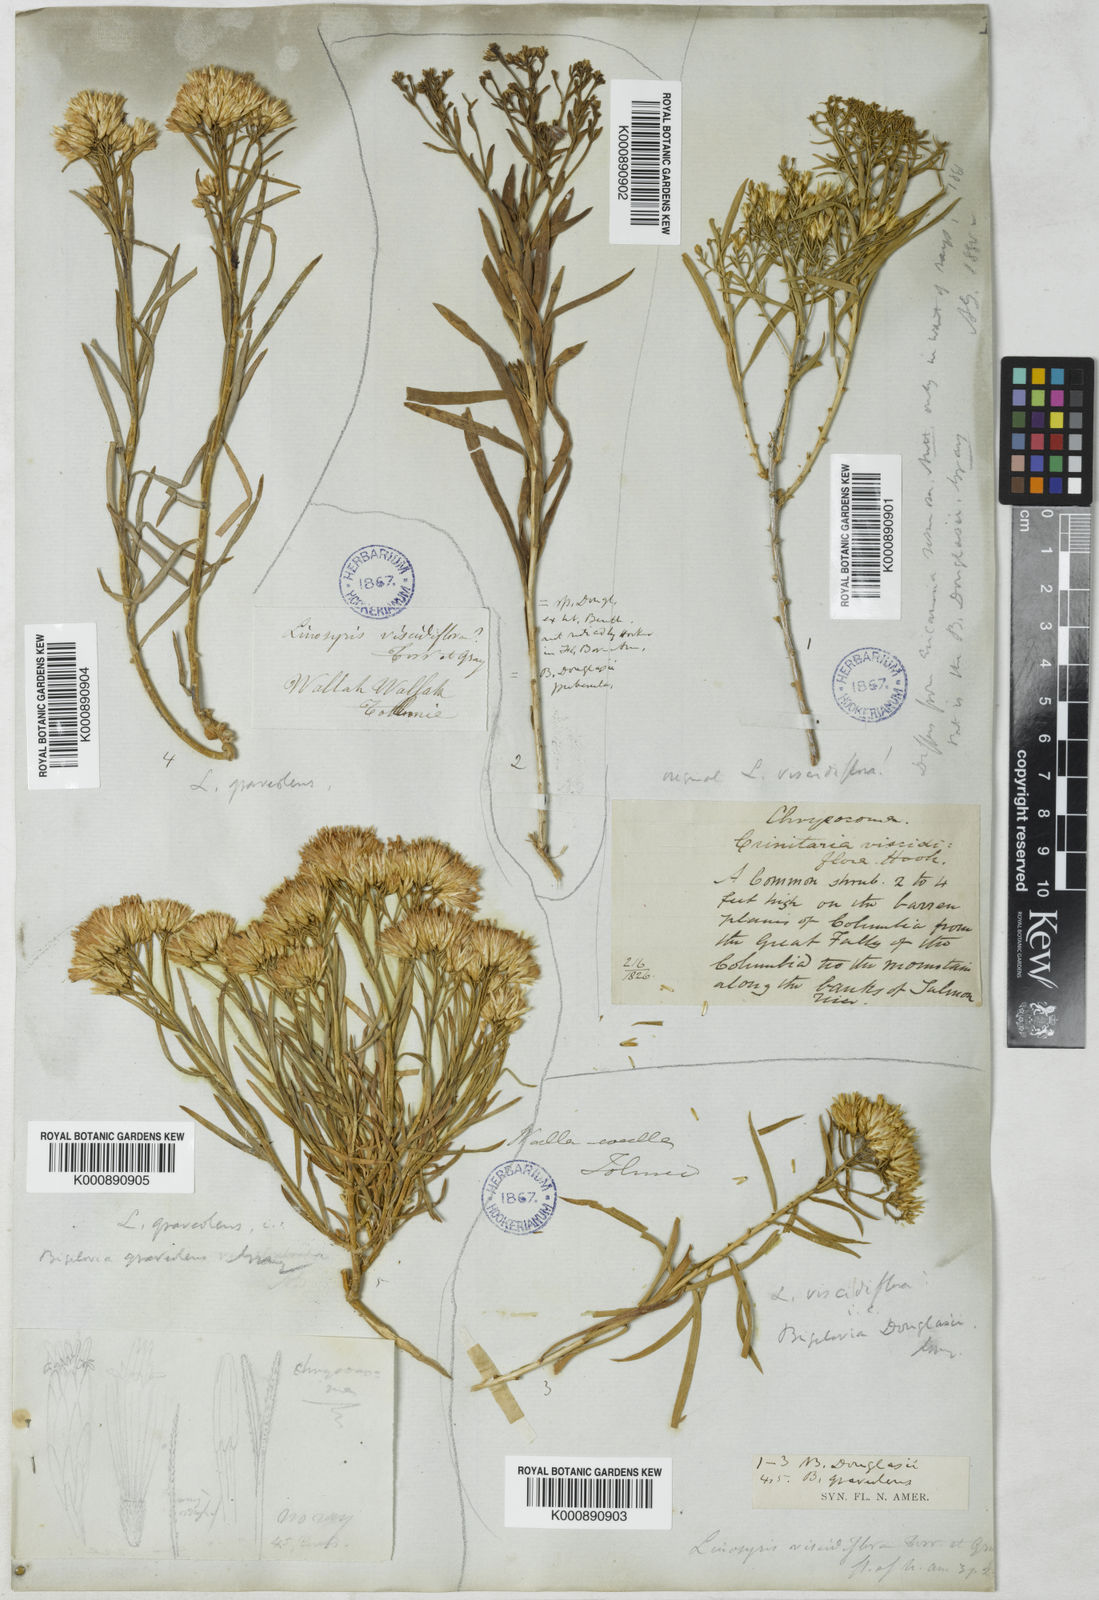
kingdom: Plantae
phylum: Tracheophyta
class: Magnoliopsida
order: Asterales
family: Asteraceae
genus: Chrysothamnus
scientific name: Chrysothamnus viscidiflorus
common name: Yellow rabbitbrush
